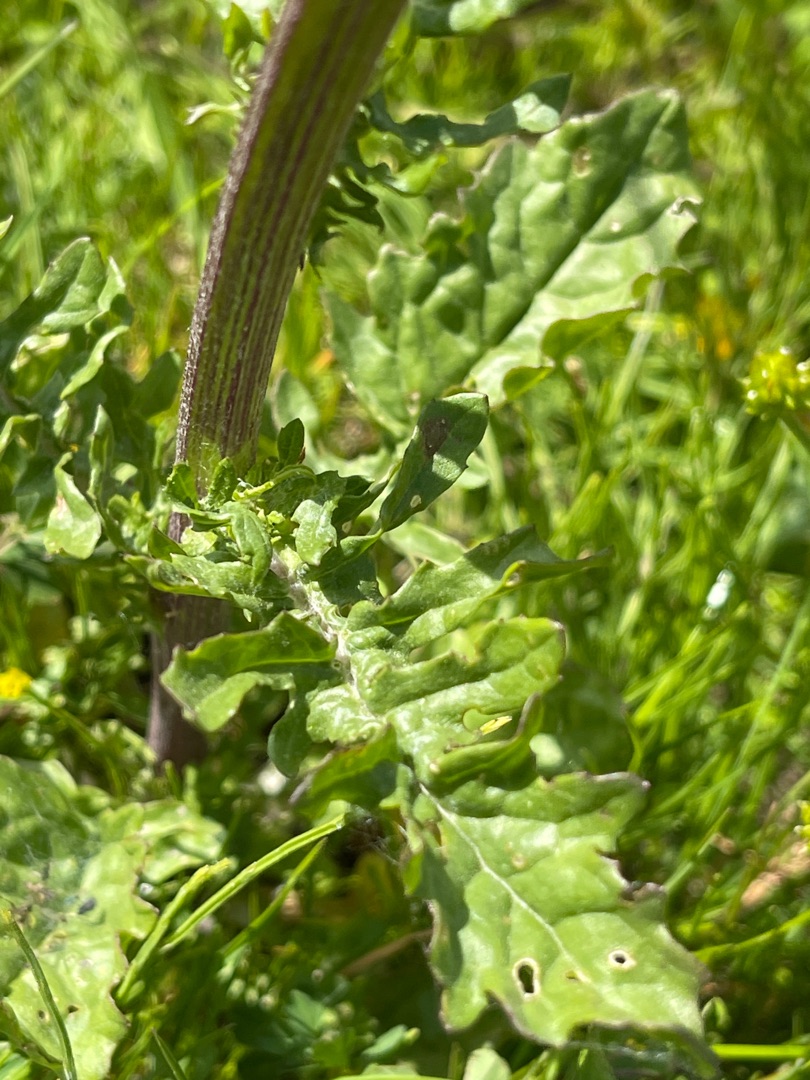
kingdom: Plantae
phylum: Tracheophyta
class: Magnoliopsida
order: Asterales
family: Asteraceae
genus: Jacobaea
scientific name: Jacobaea vulgaris
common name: Eng-brandbæger
